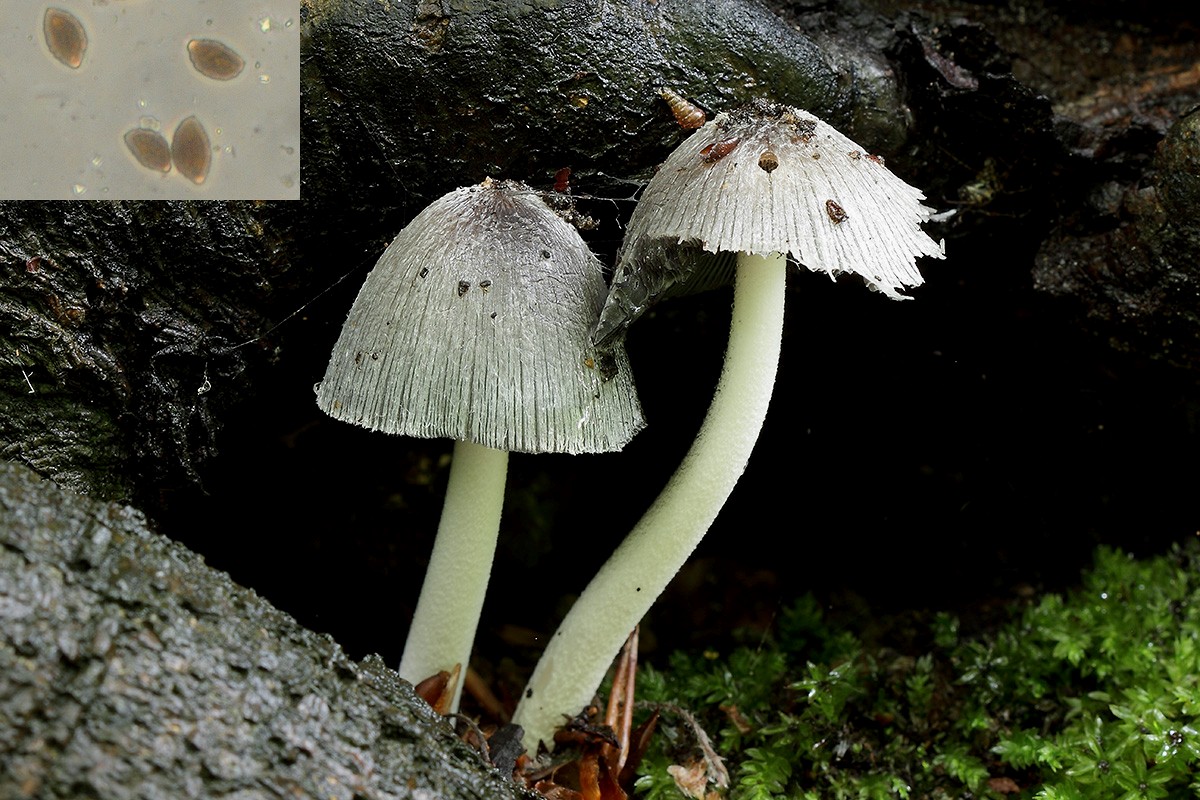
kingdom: Fungi
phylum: Basidiomycota
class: Agaricomycetes
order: Agaricales
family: Psathyrellaceae
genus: Coprinopsis
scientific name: Coprinopsis insignis
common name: stor blækhat
